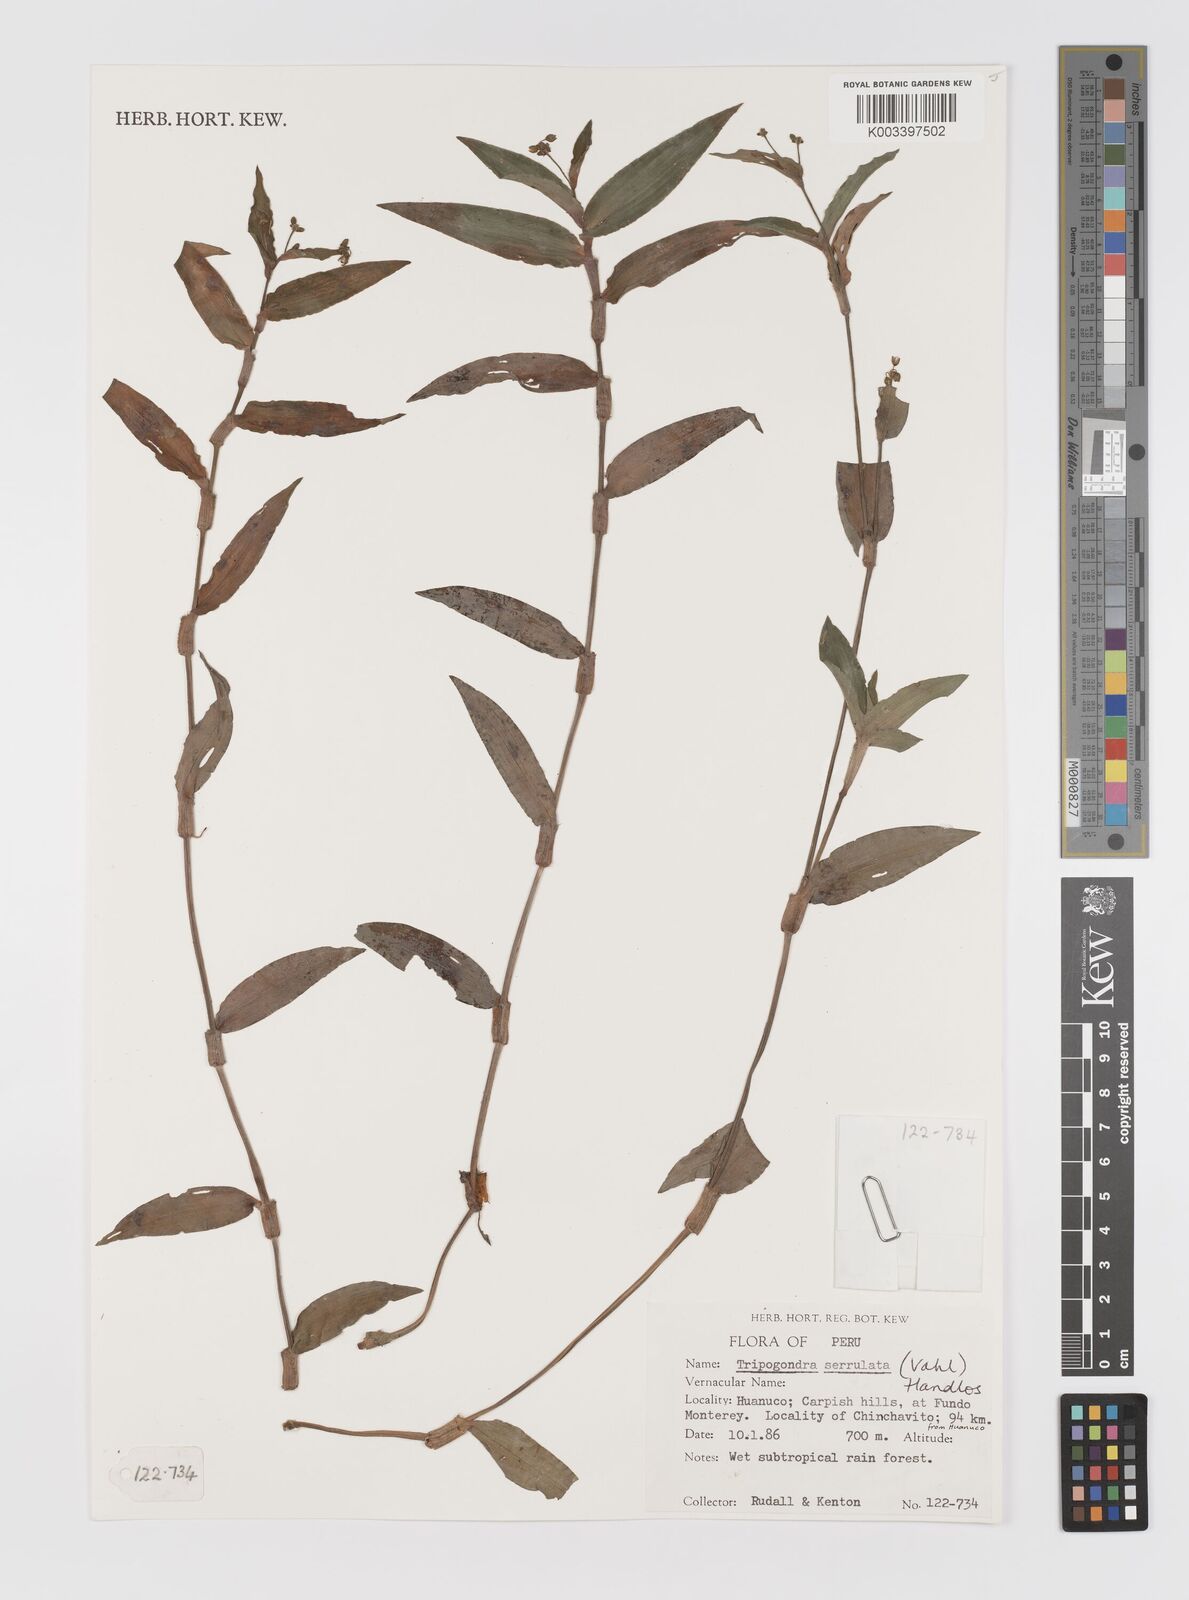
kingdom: Plantae
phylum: Tracheophyta
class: Liliopsida
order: Commelinales
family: Commelinaceae
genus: Callisia
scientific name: Callisia serrulata
